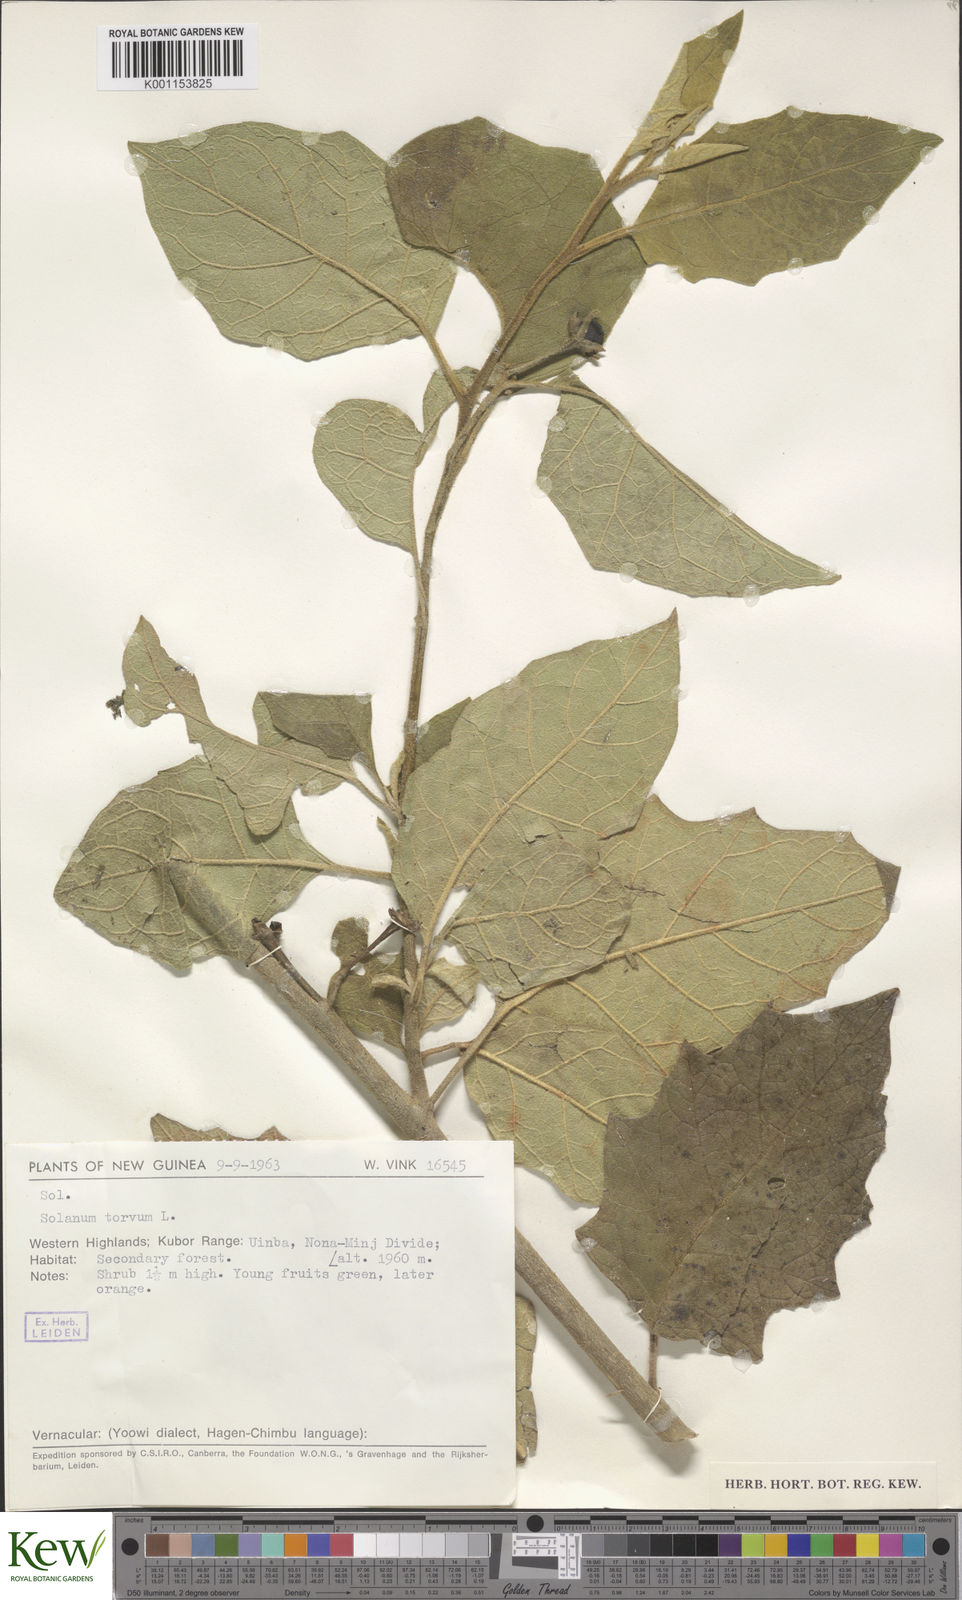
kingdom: Plantae
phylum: Tracheophyta
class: Magnoliopsida
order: Solanales
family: Solanaceae
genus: Solanum
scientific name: Solanum dammerianum
